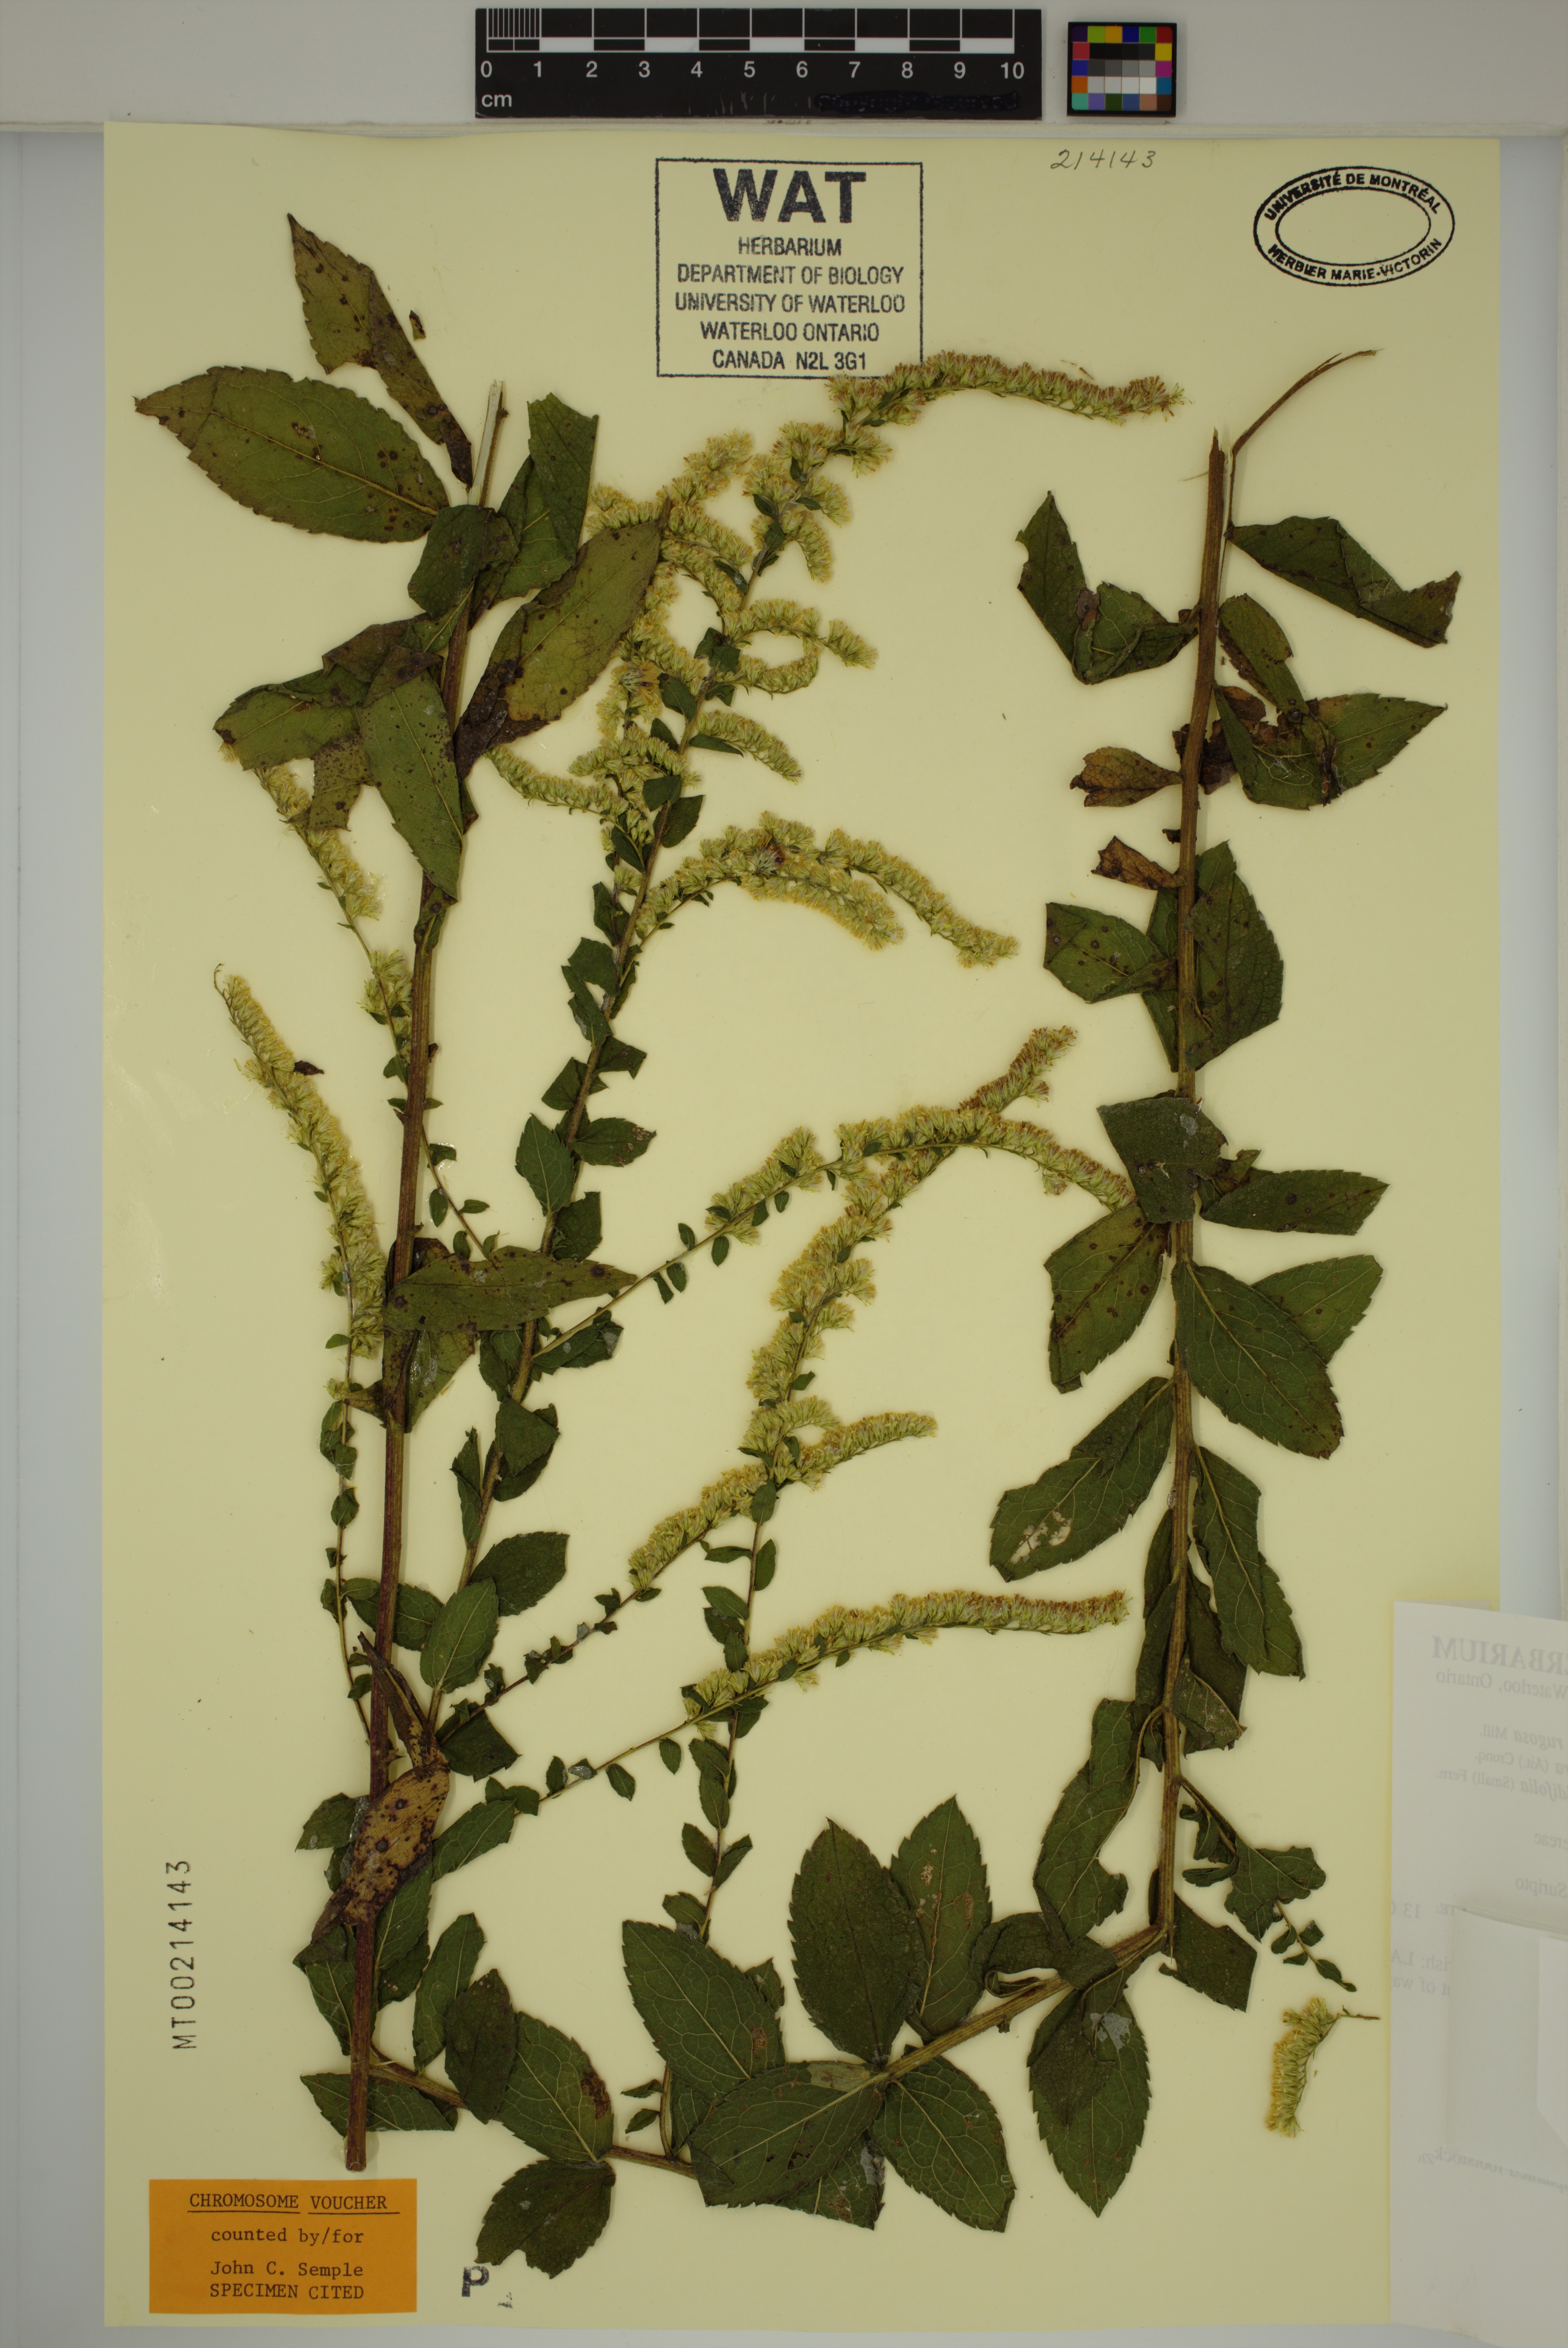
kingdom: Plantae
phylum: Tracheophyta
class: Magnoliopsida
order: Asterales
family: Asteraceae
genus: Solidago
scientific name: Solidago rugosa
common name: Rough-stemmed goldenrod
